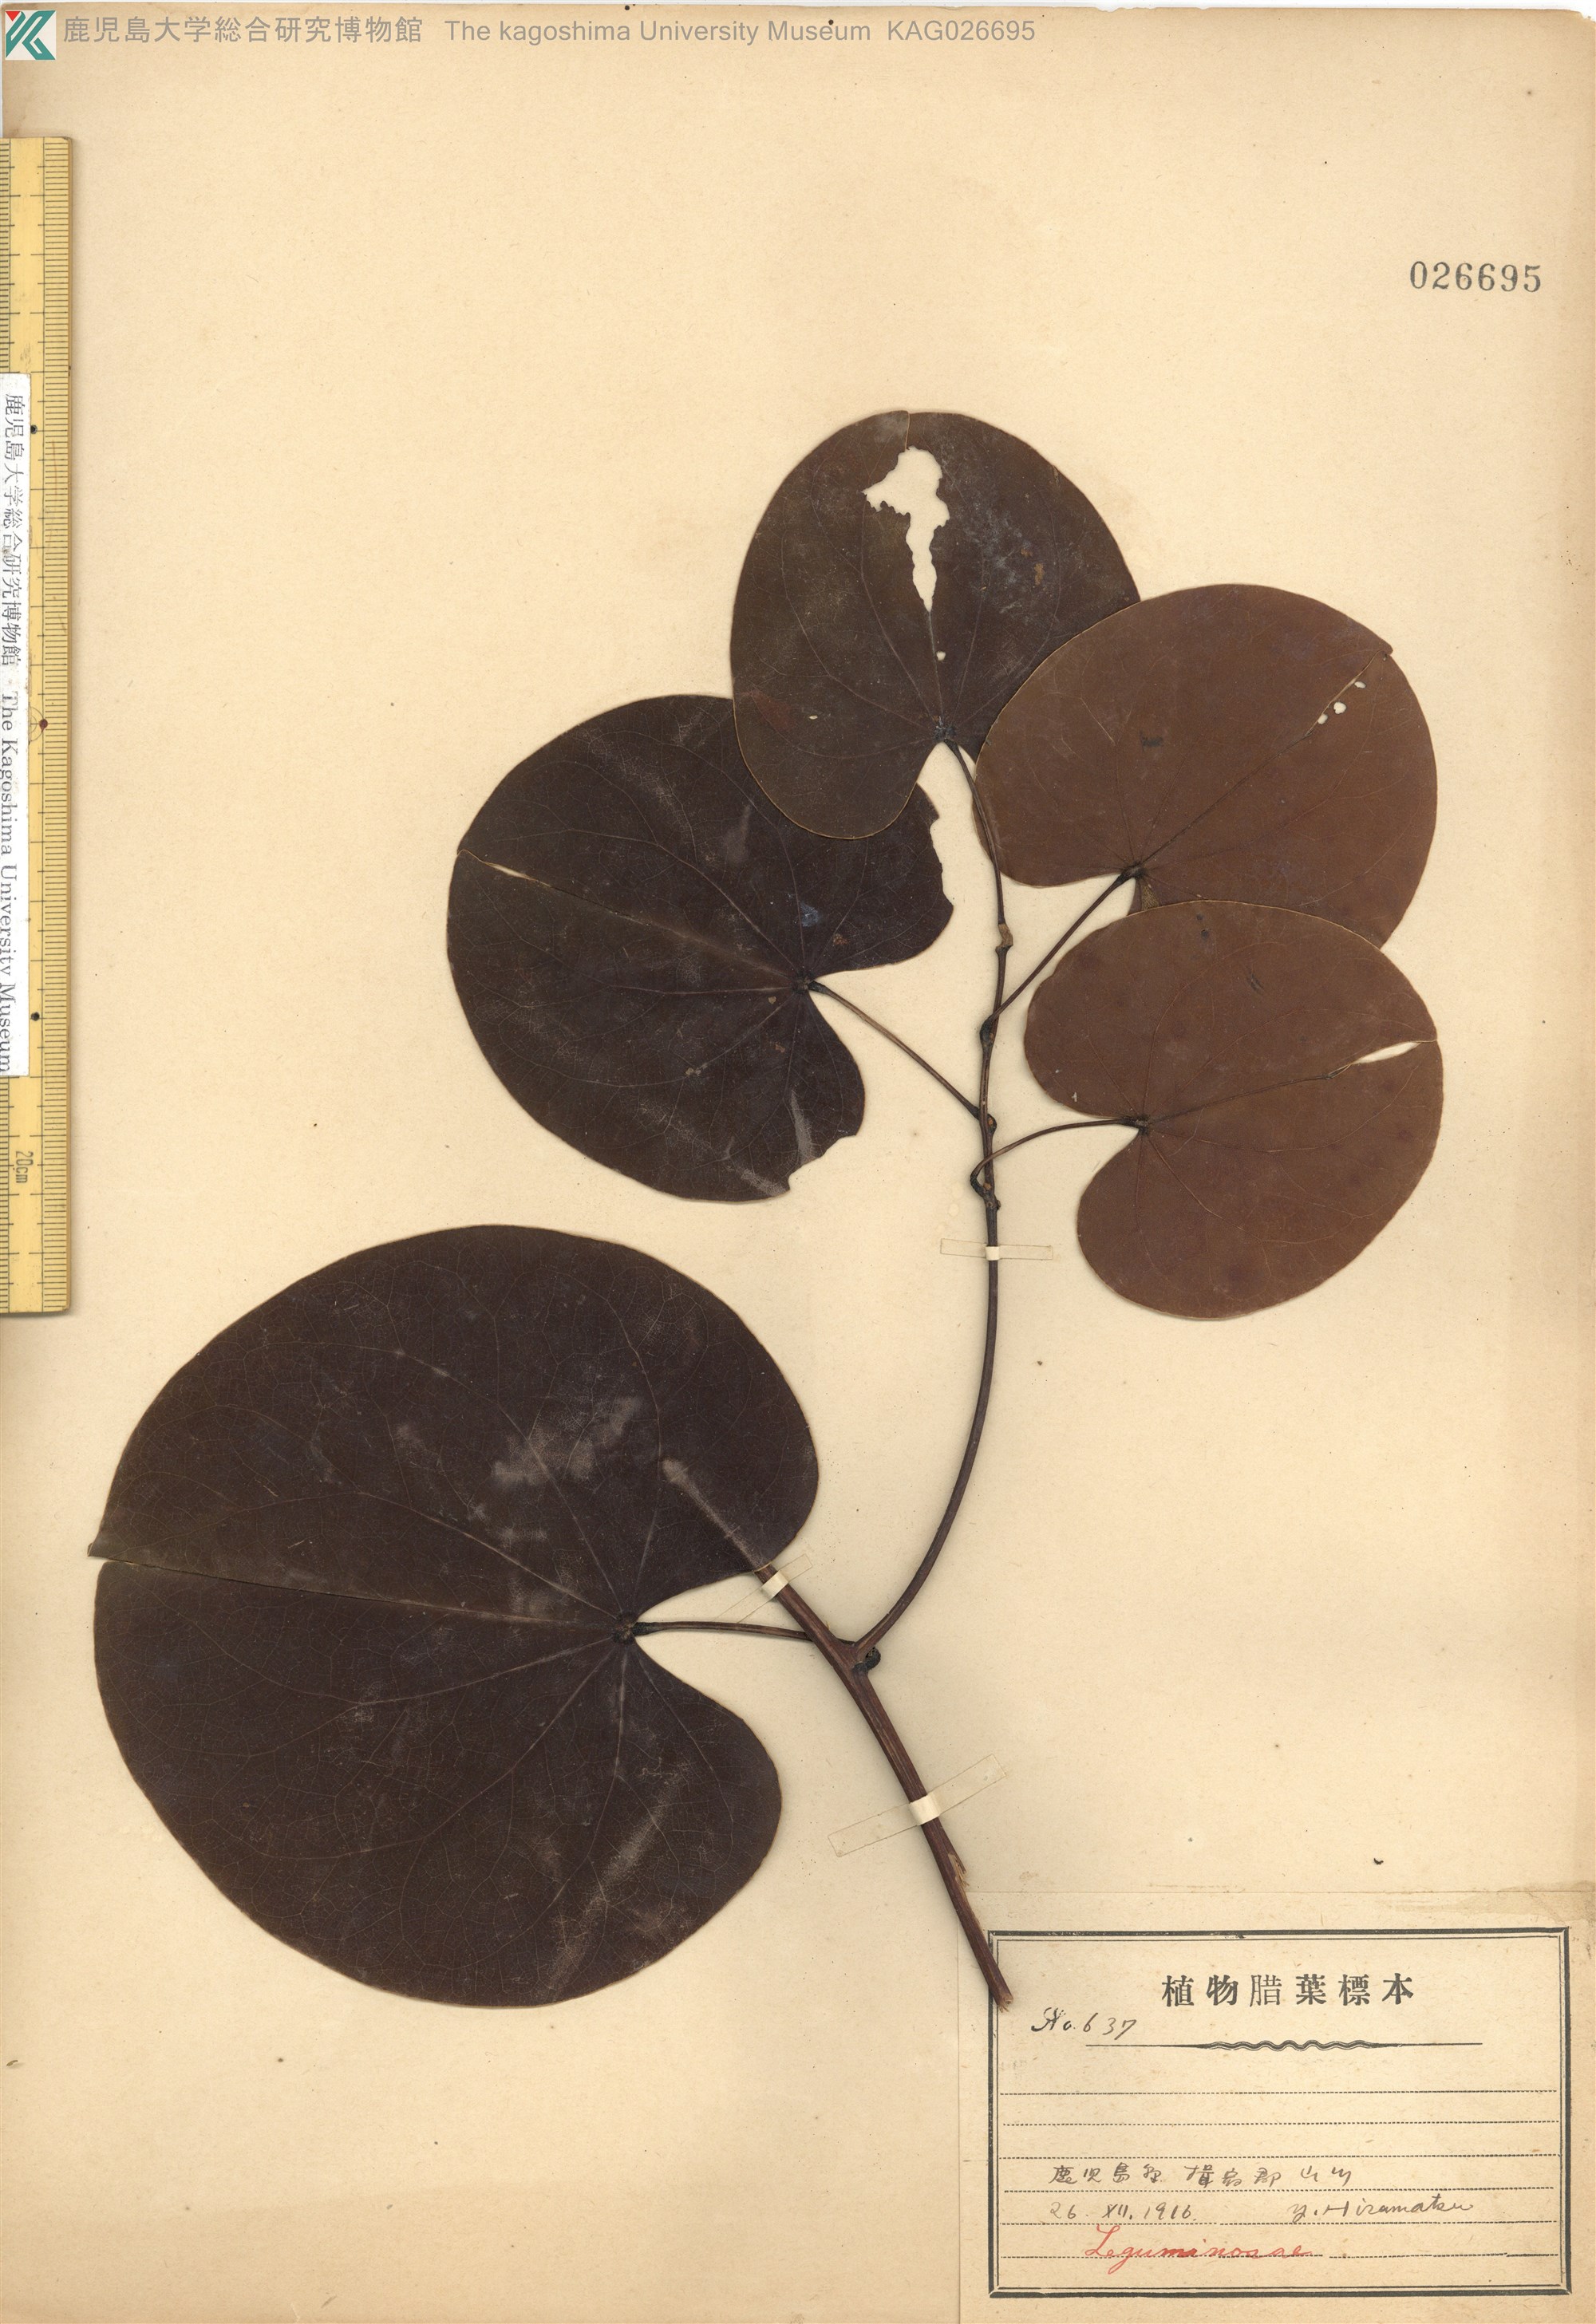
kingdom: Plantae
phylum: Tracheophyta
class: Magnoliopsida
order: Fabales
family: Fabaceae
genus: Phanera
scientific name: Phanera japonica
